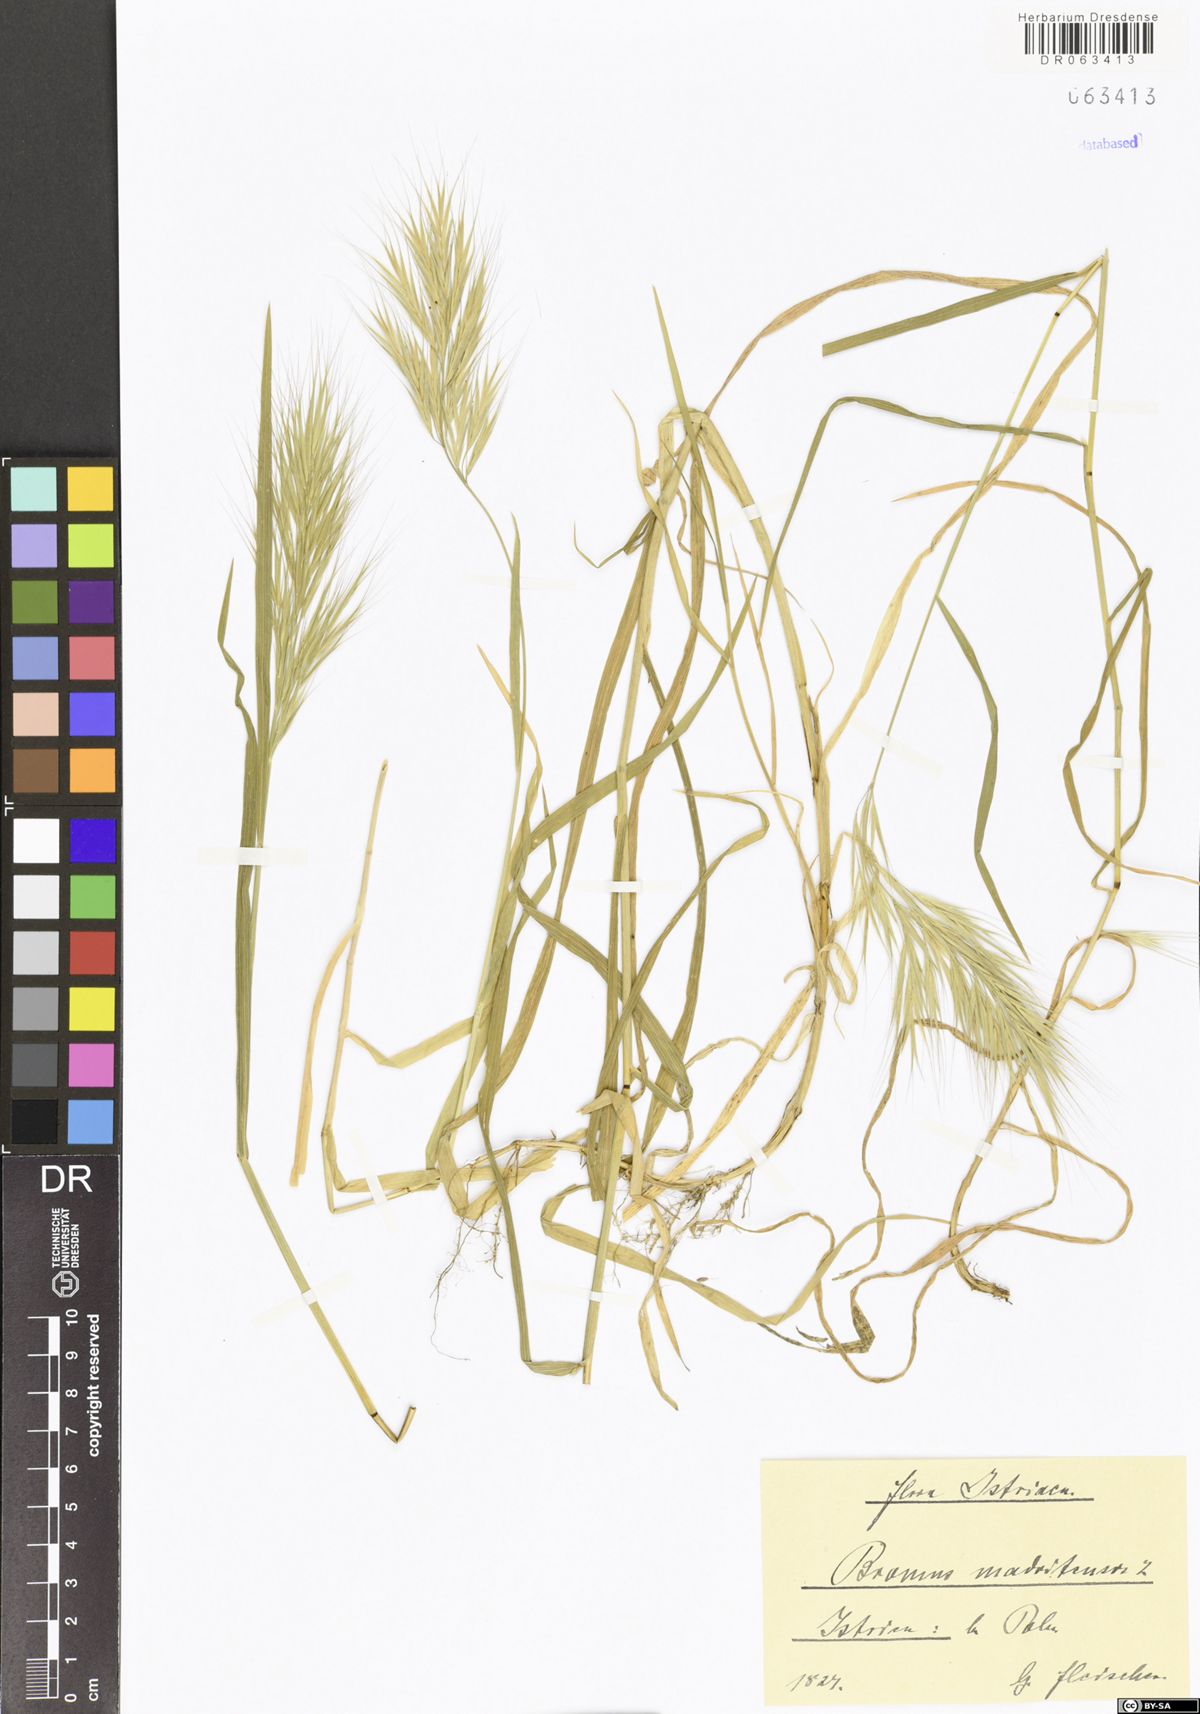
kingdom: Plantae
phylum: Tracheophyta
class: Liliopsida
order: Poales
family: Poaceae
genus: Bromus
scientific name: Bromus madritensis
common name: Compact brome
